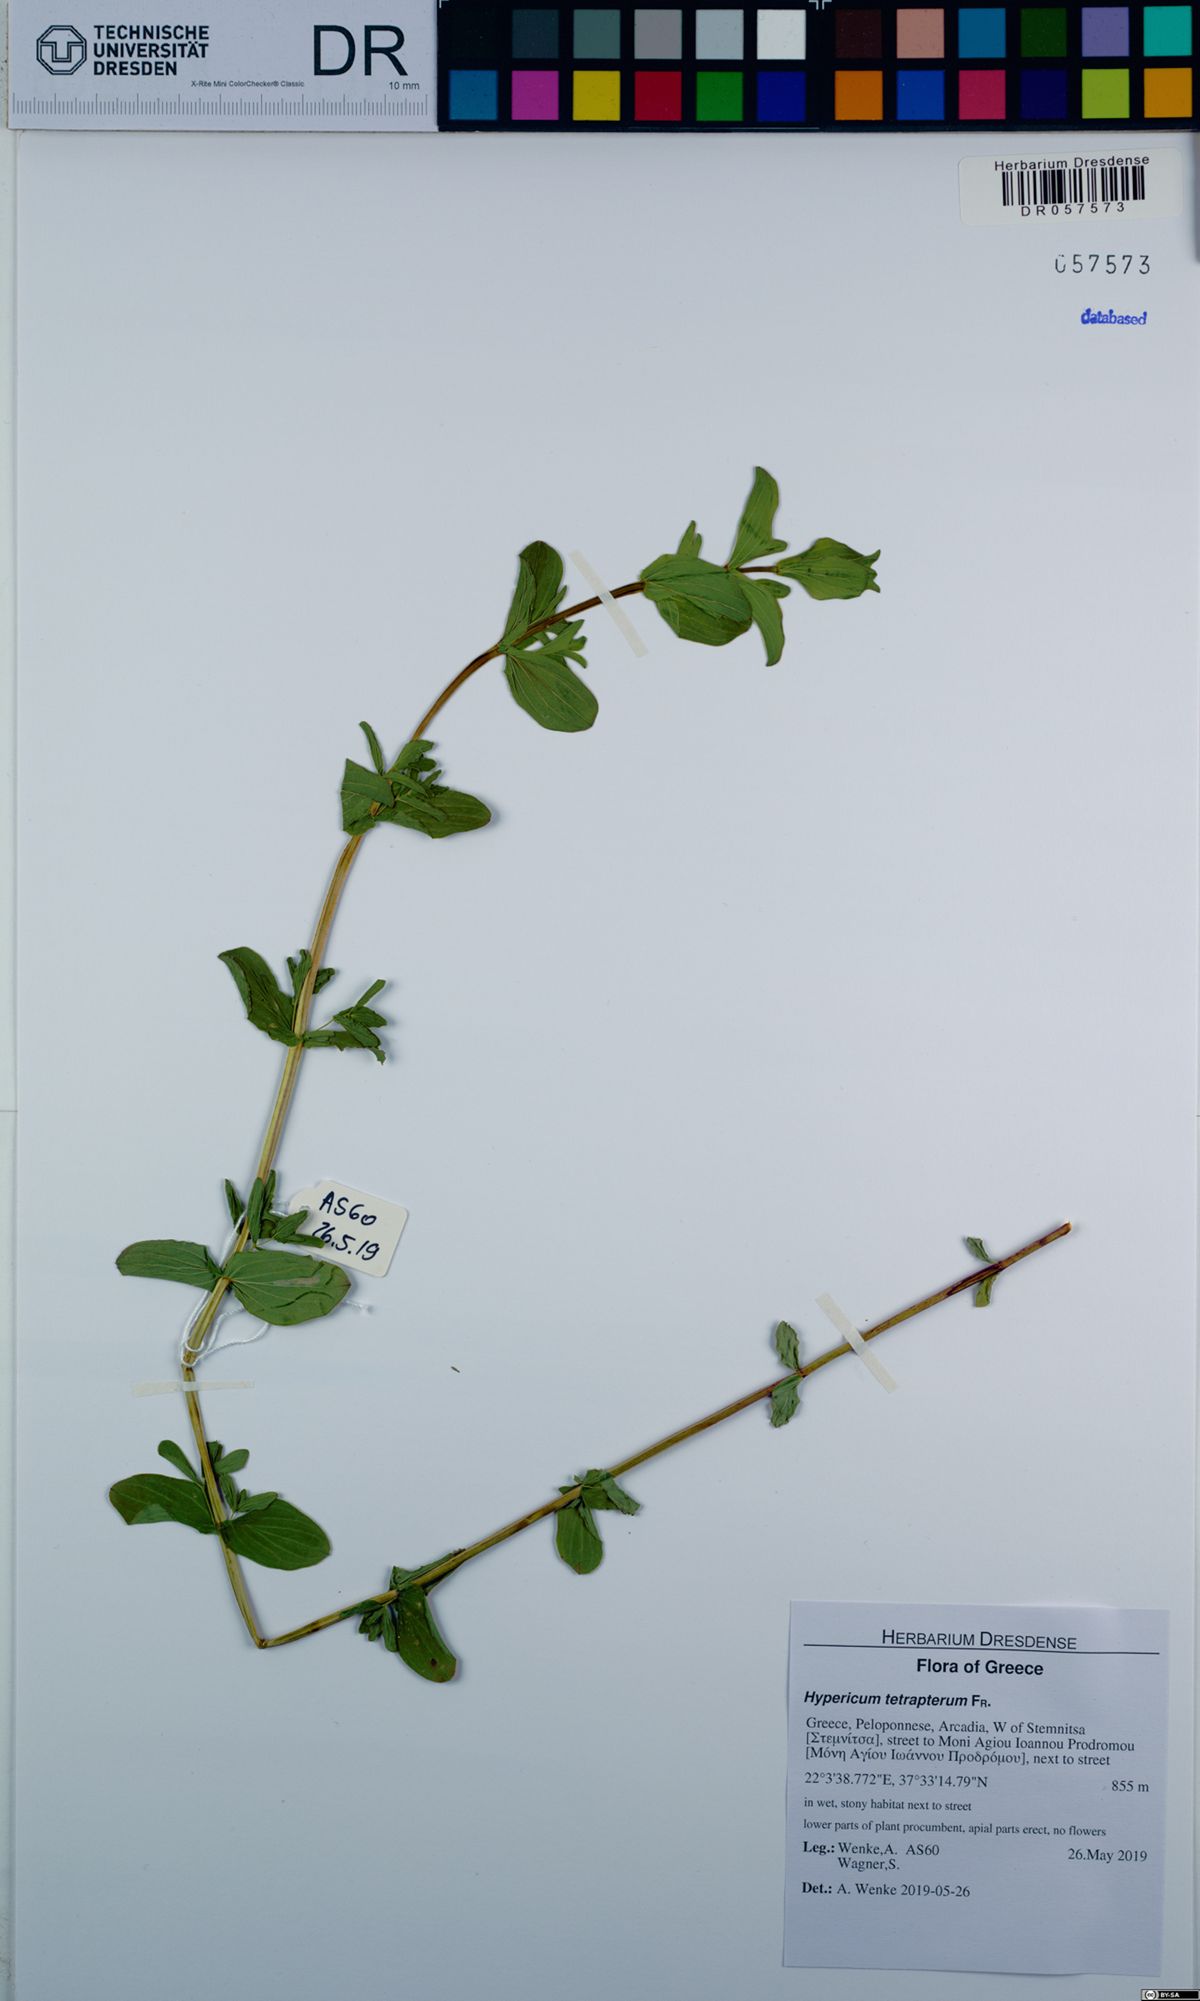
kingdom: Plantae
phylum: Tracheophyta
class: Magnoliopsida
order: Malpighiales
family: Hypericaceae
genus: Hypericum
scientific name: Hypericum tetrapterum
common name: Square-stalked st. john's-wort
